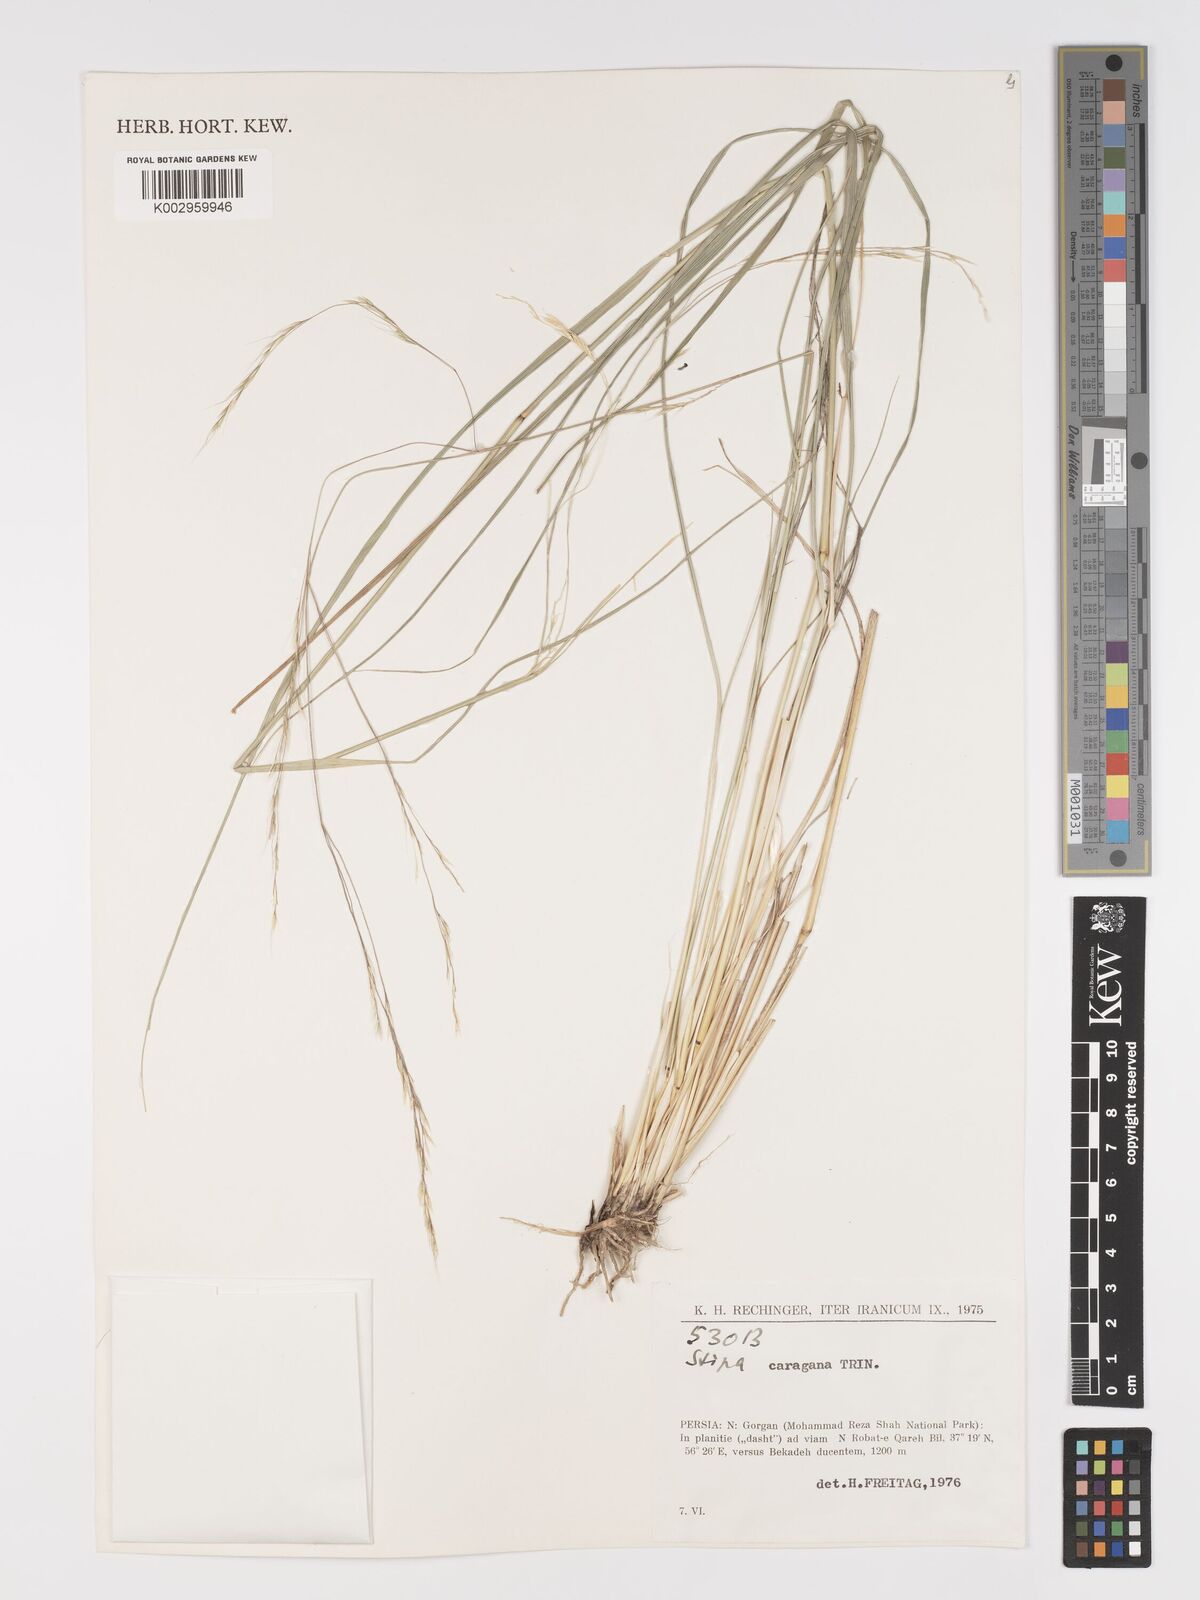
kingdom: Plantae
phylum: Tracheophyta
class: Liliopsida
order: Poales
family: Poaceae
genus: Stipa
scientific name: Stipa conferta
